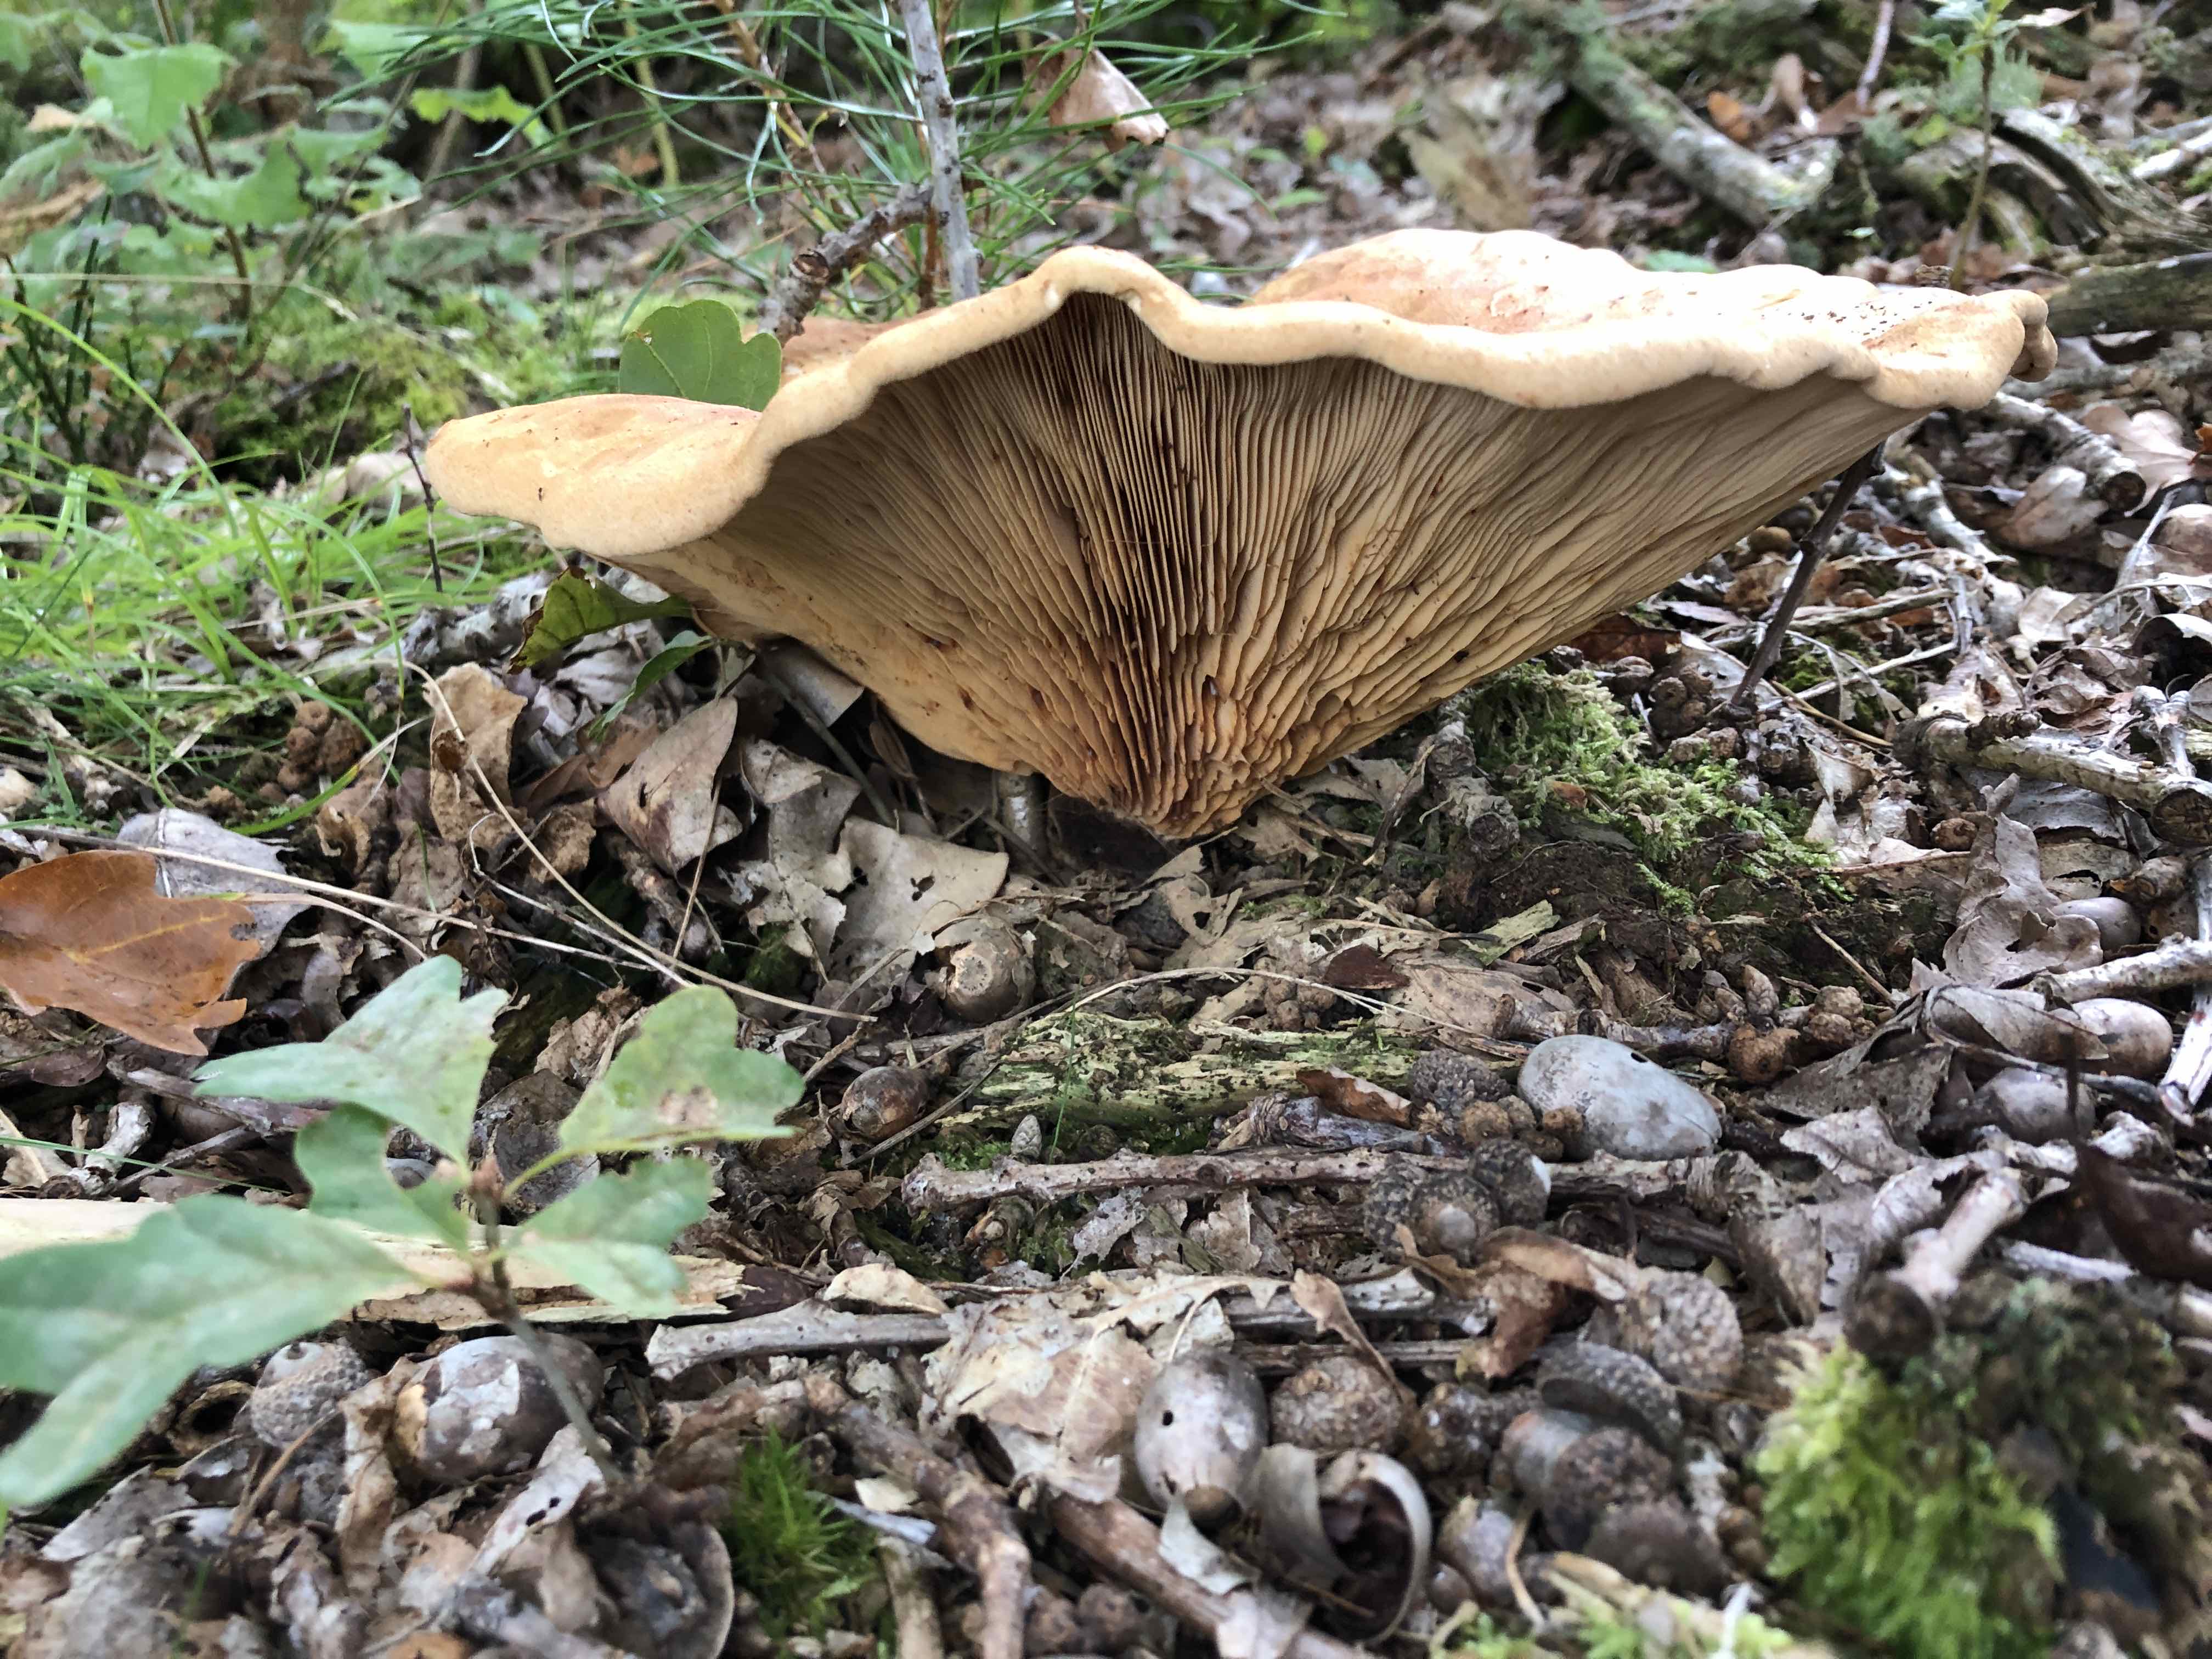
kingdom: Fungi
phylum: Basidiomycota
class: Agaricomycetes
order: Boletales
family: Tapinellaceae
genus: Tapinella
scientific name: Tapinella atrotomentosa
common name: sortfiltet viftesvamp
